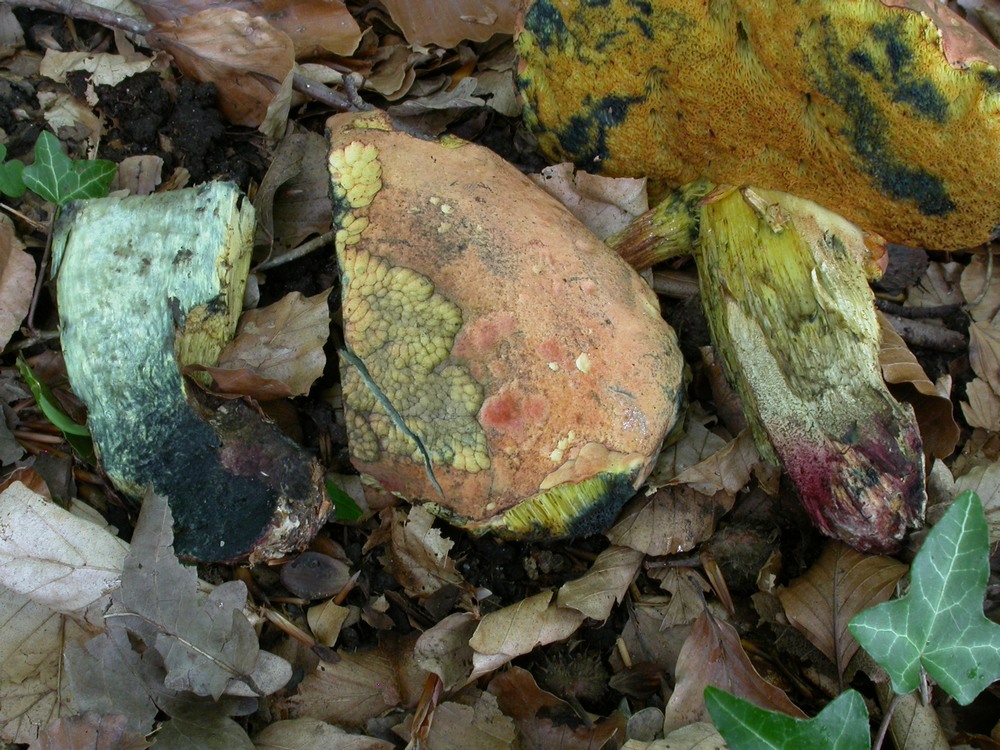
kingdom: Fungi
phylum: Basidiomycota
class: Agaricomycetes
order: Boletales
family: Boletaceae
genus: Suillellus
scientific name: Suillellus queletii
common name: glatstokket indigorørhat
